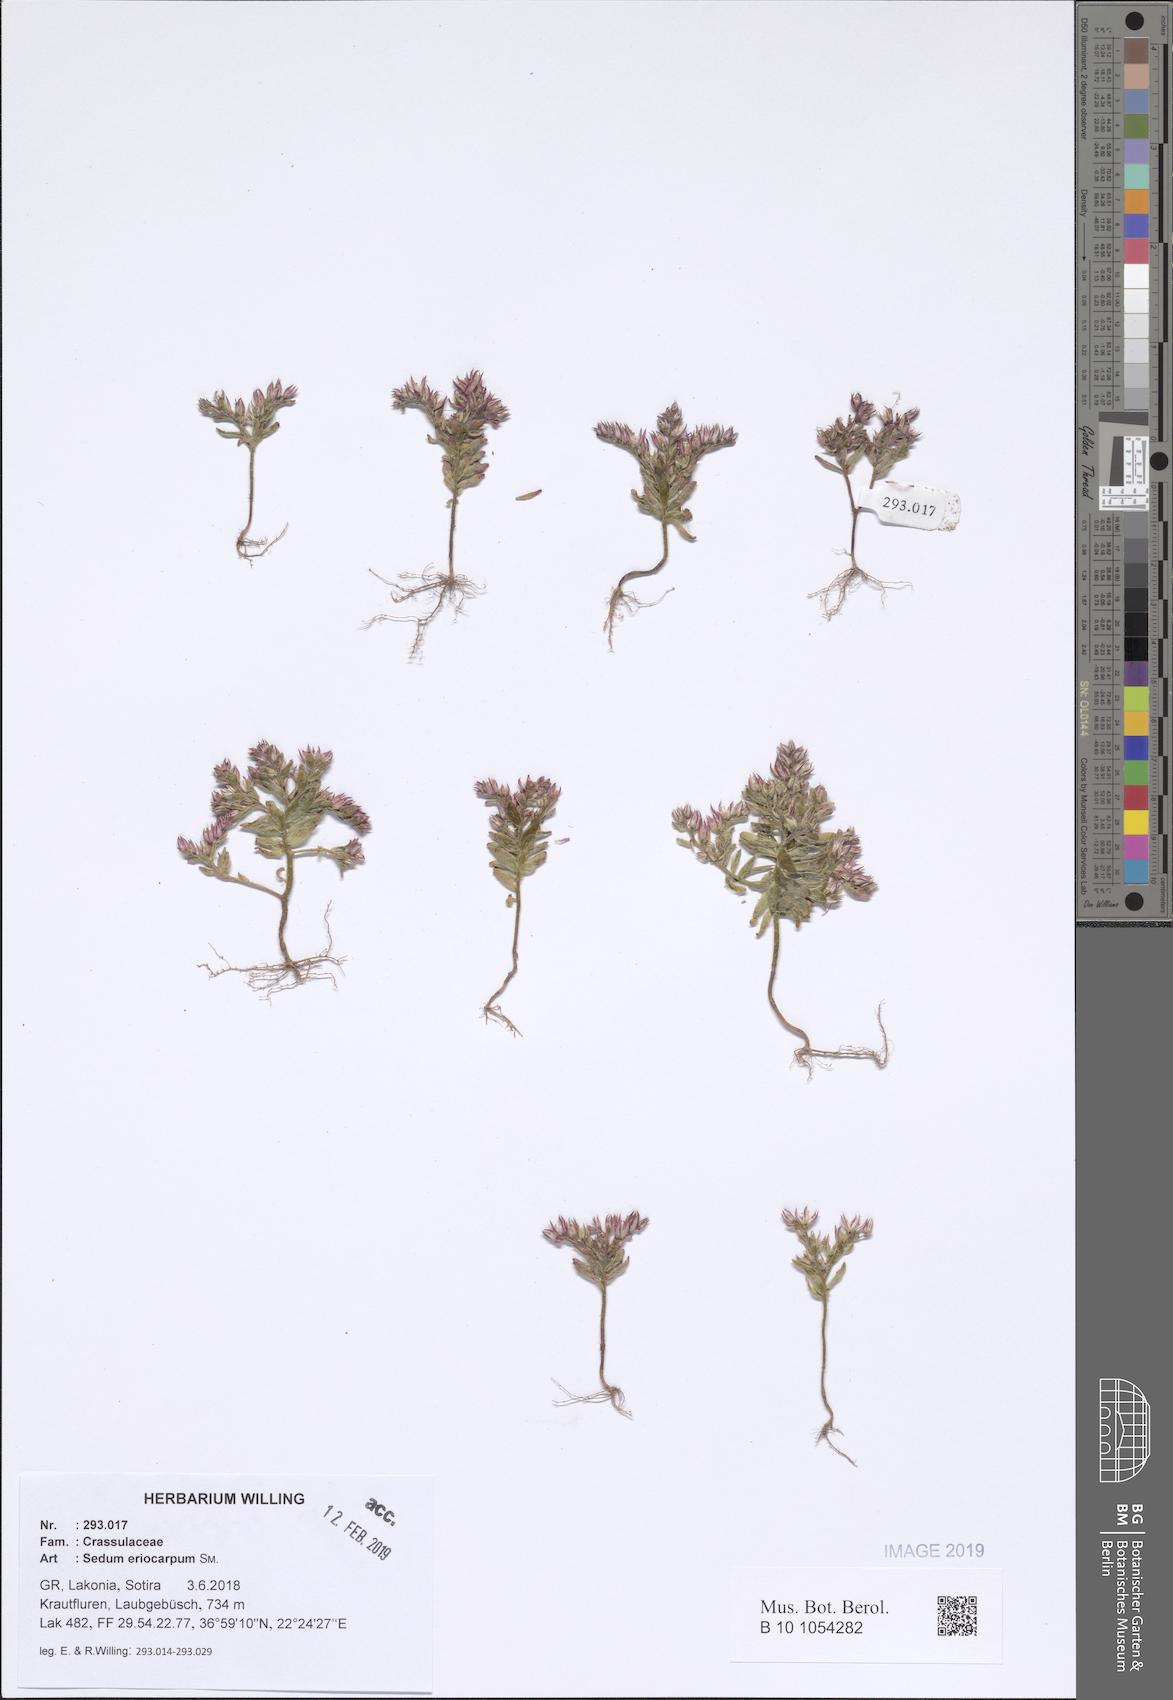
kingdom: Plantae
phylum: Tracheophyta
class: Magnoliopsida
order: Saxifragales
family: Crassulaceae
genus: Sedum
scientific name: Sedum eriocarpum
